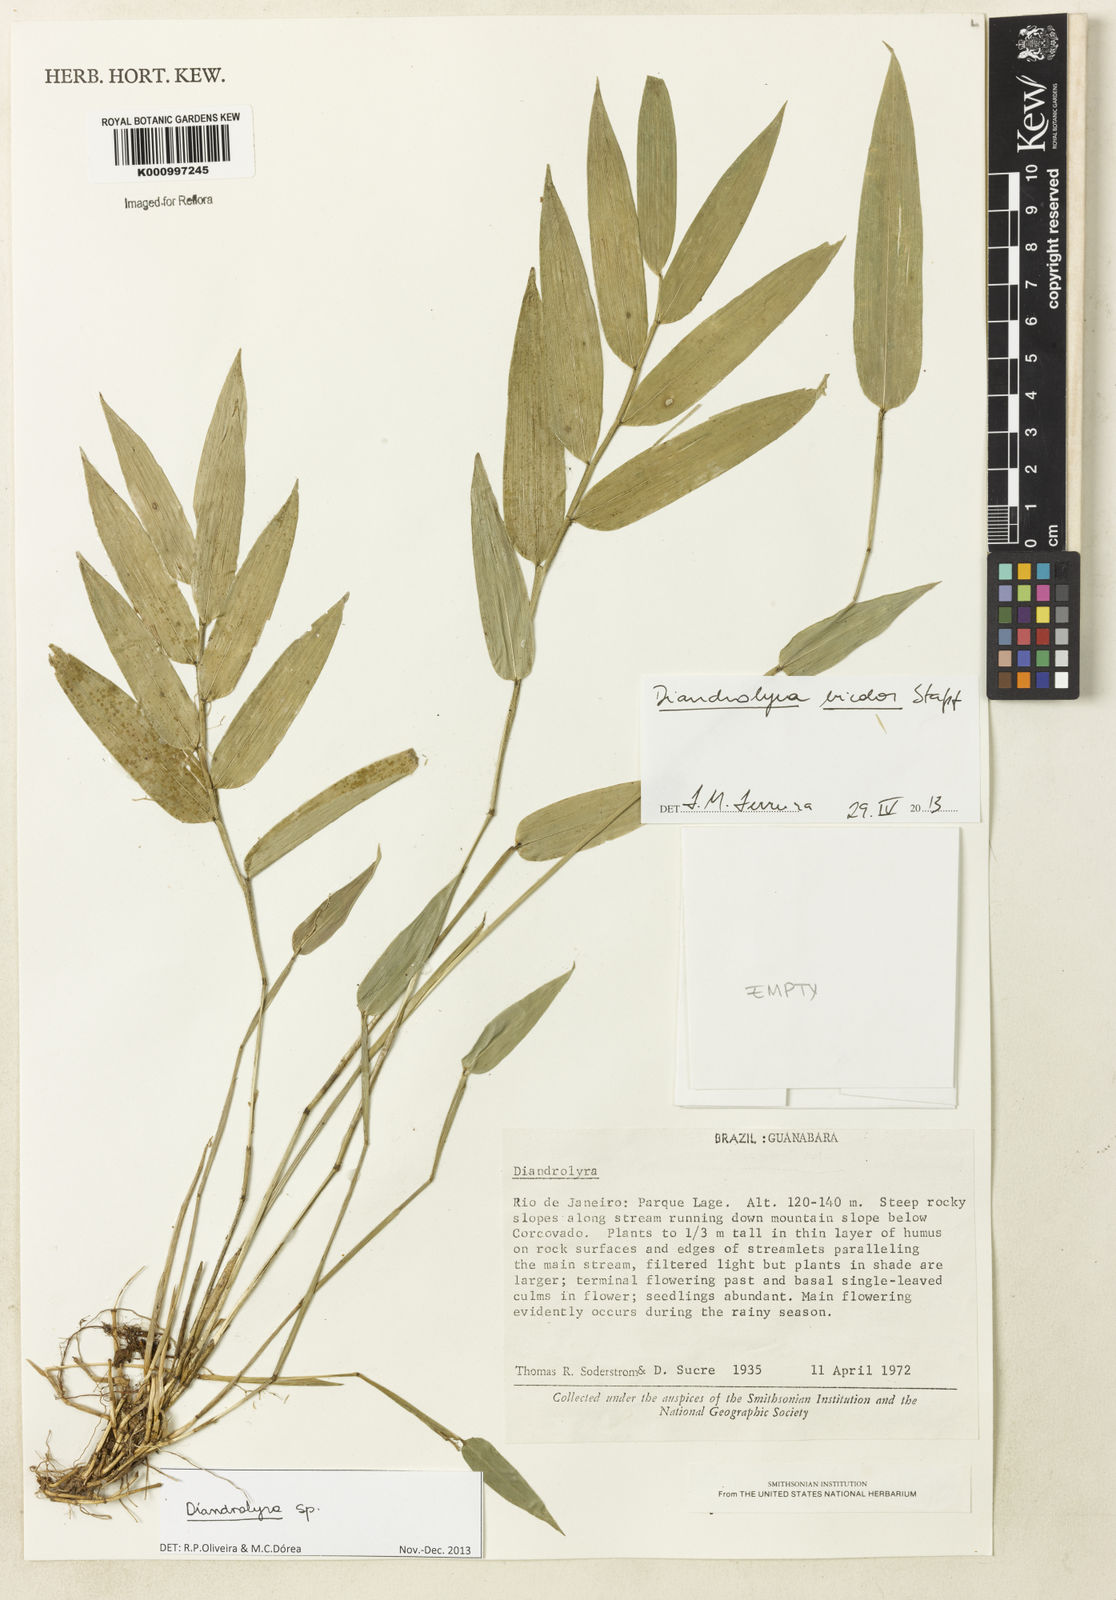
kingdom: Plantae
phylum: Tracheophyta
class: Liliopsida
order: Poales
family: Poaceae
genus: Diandrolyra
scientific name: Diandrolyra
